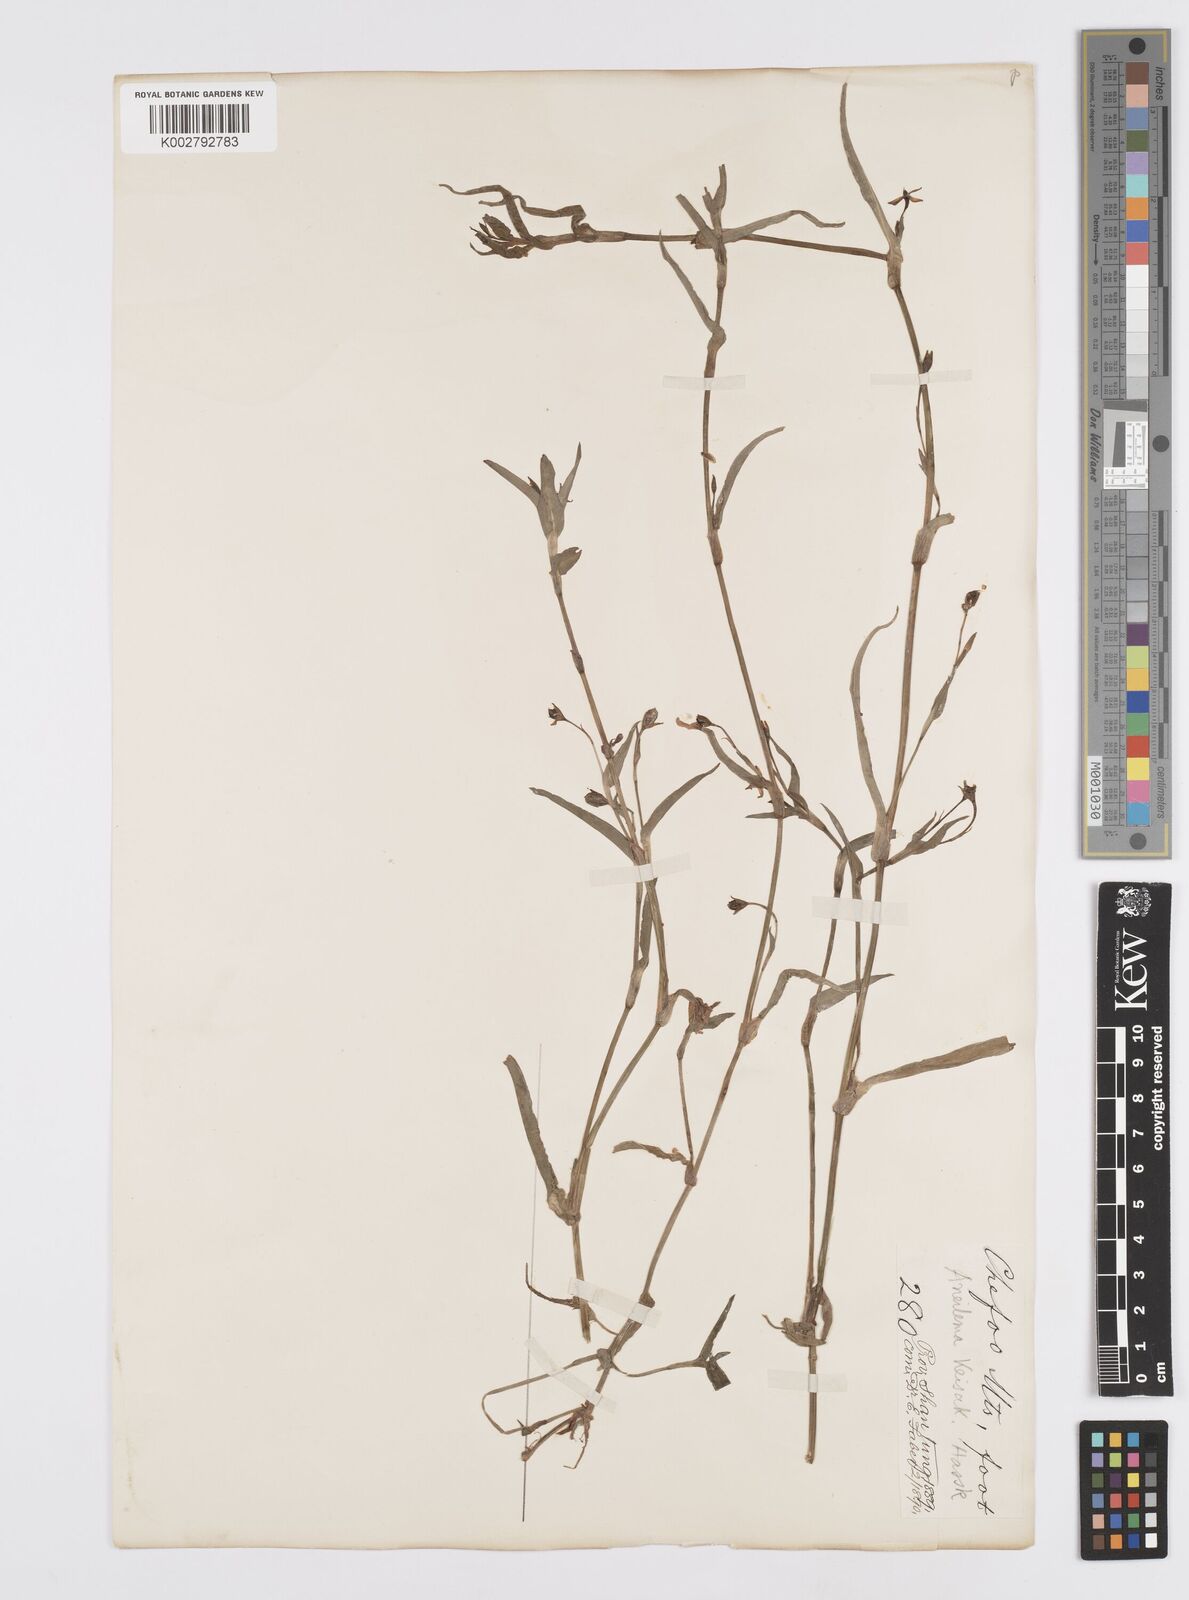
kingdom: Plantae
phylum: Tracheophyta
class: Liliopsida
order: Commelinales
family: Commelinaceae
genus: Murdannia
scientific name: Murdannia keisak
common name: Wartremoving herb
